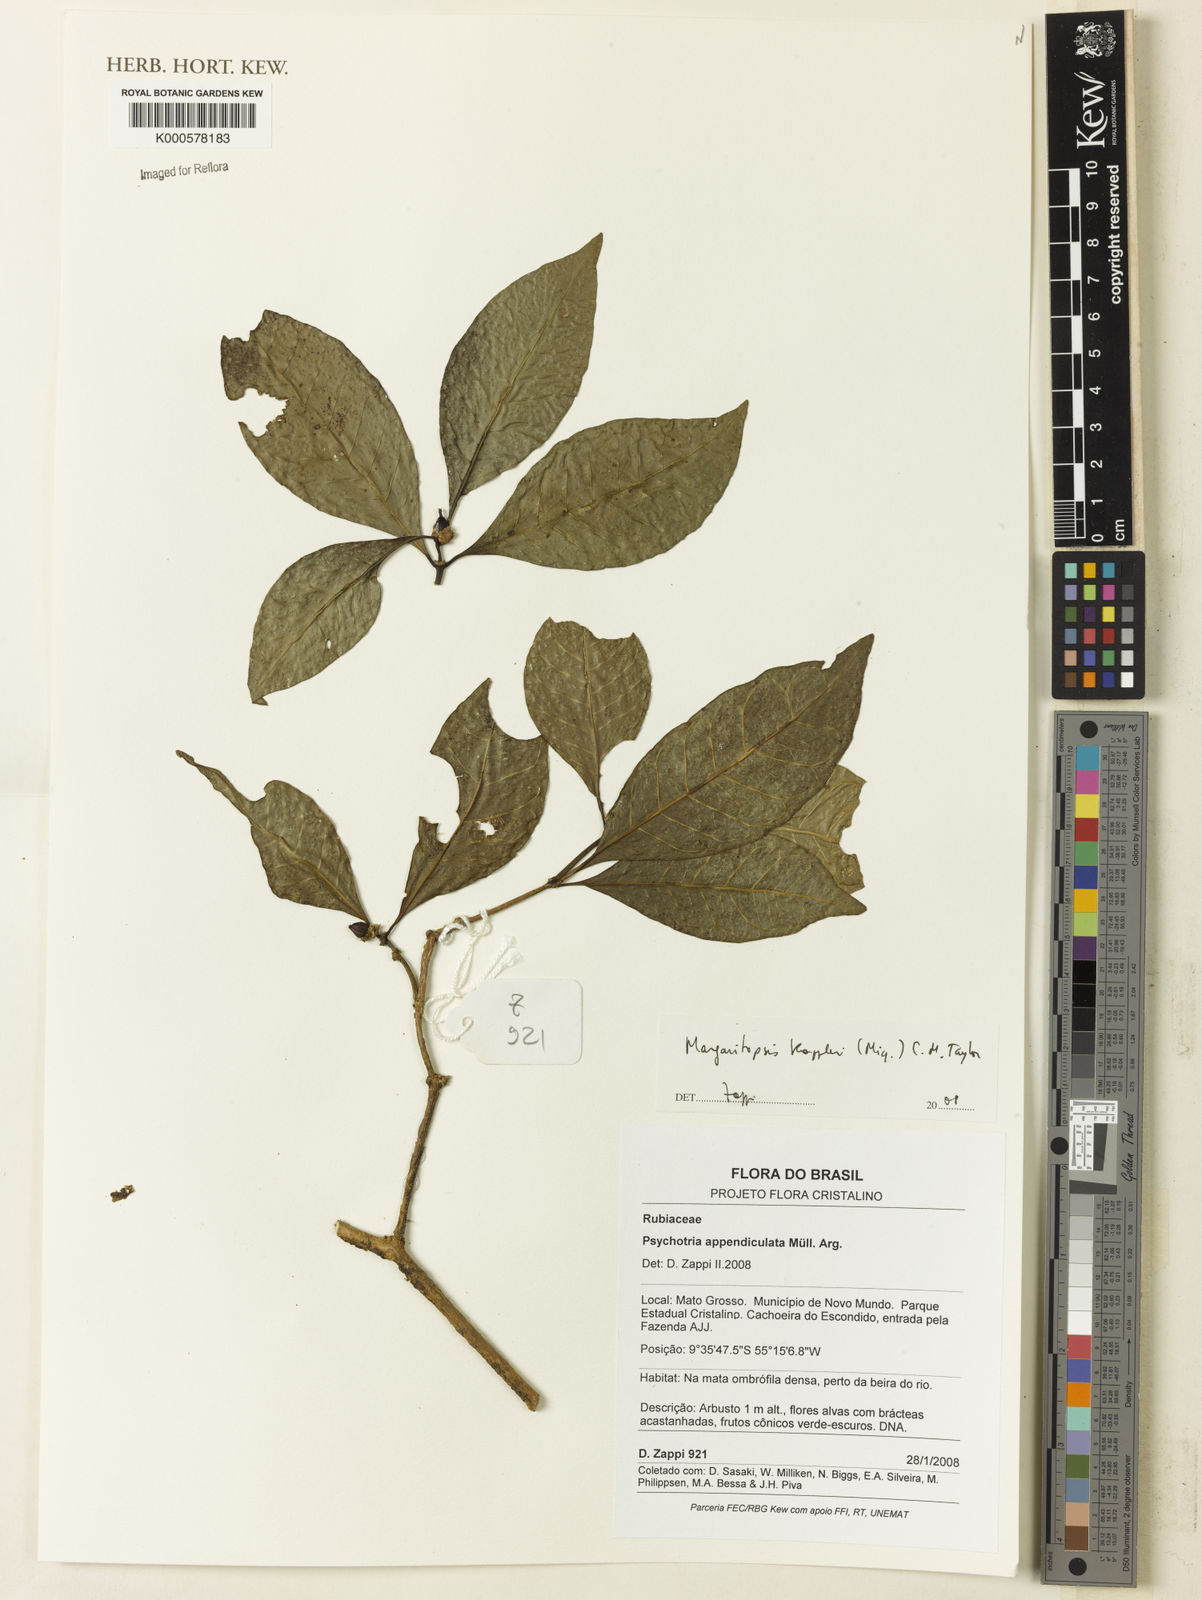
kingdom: Plantae
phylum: Tracheophyta
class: Magnoliopsida
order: Gentianales
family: Rubiaceae
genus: Eumachia
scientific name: Eumachia kappleri
